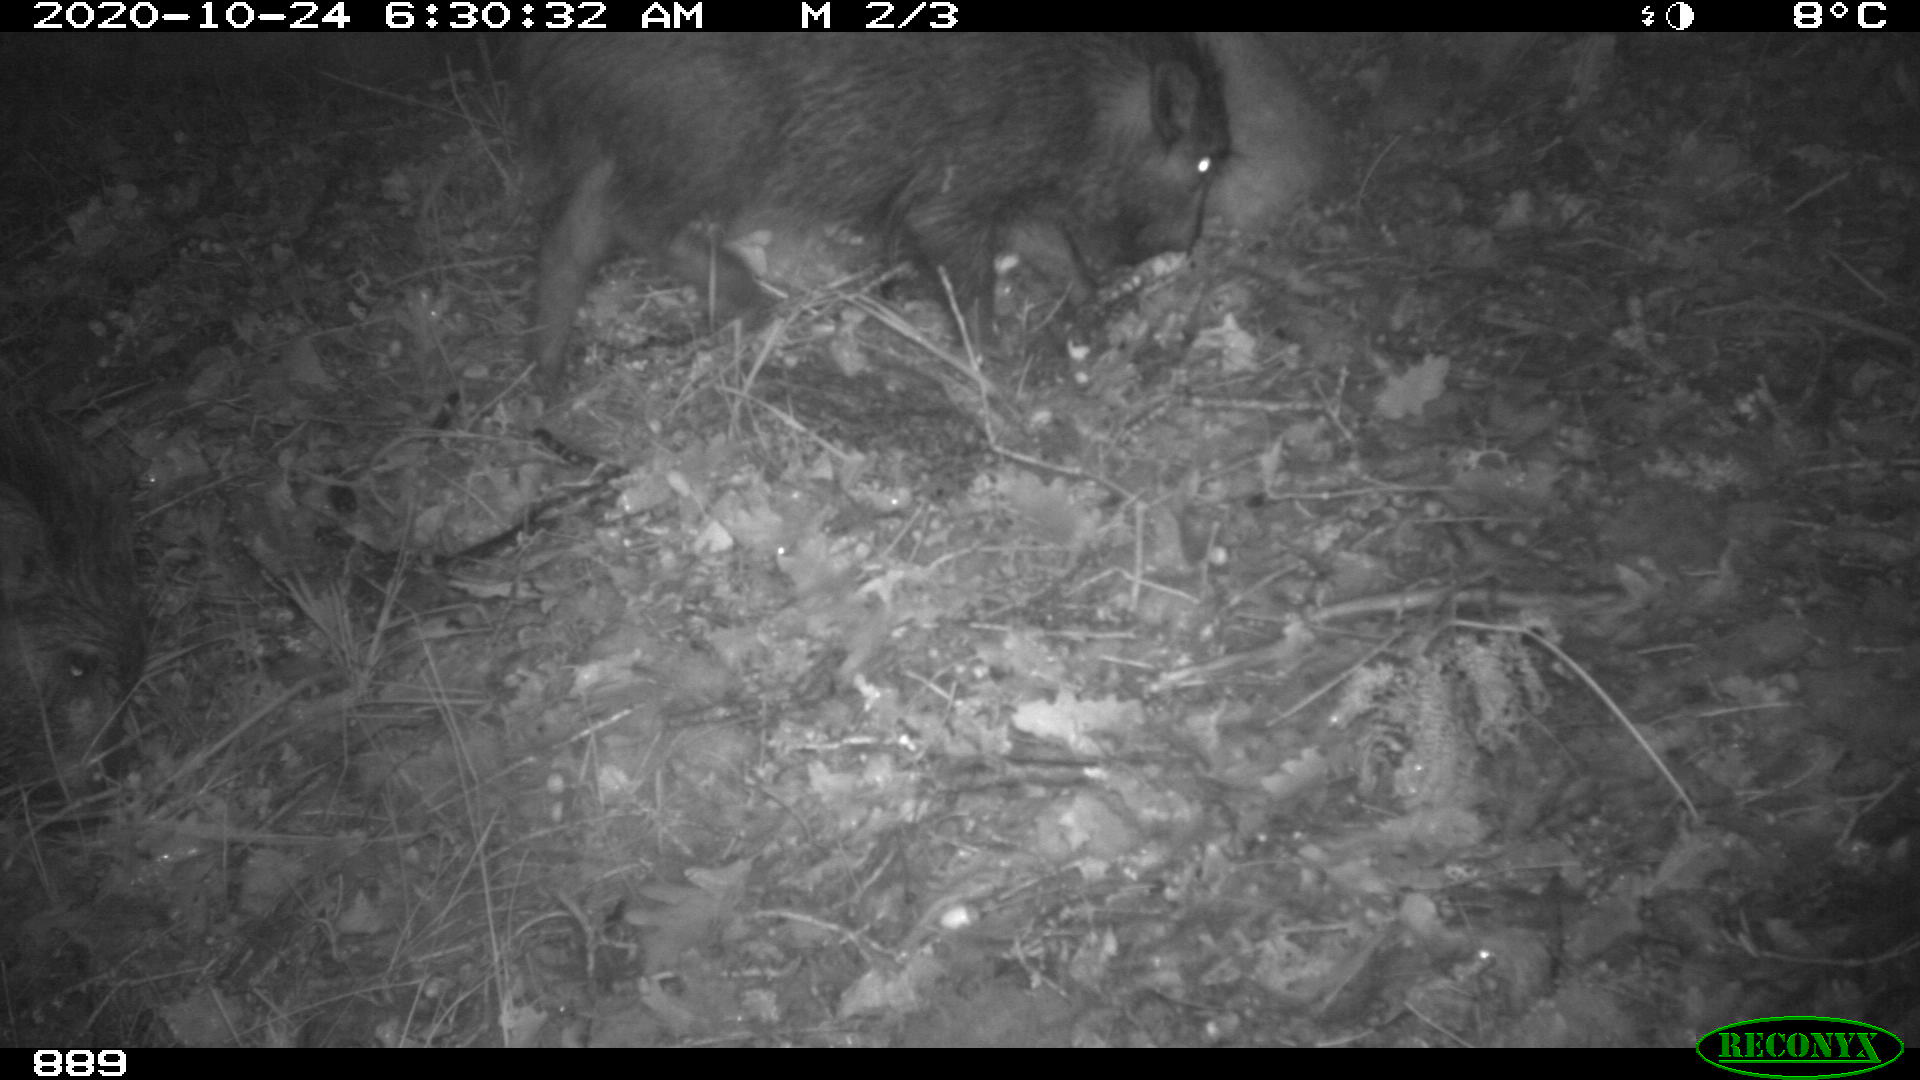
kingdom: Animalia
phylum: Chordata
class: Mammalia
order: Artiodactyla
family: Suidae
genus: Sus
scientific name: Sus scrofa
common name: Wild boar
